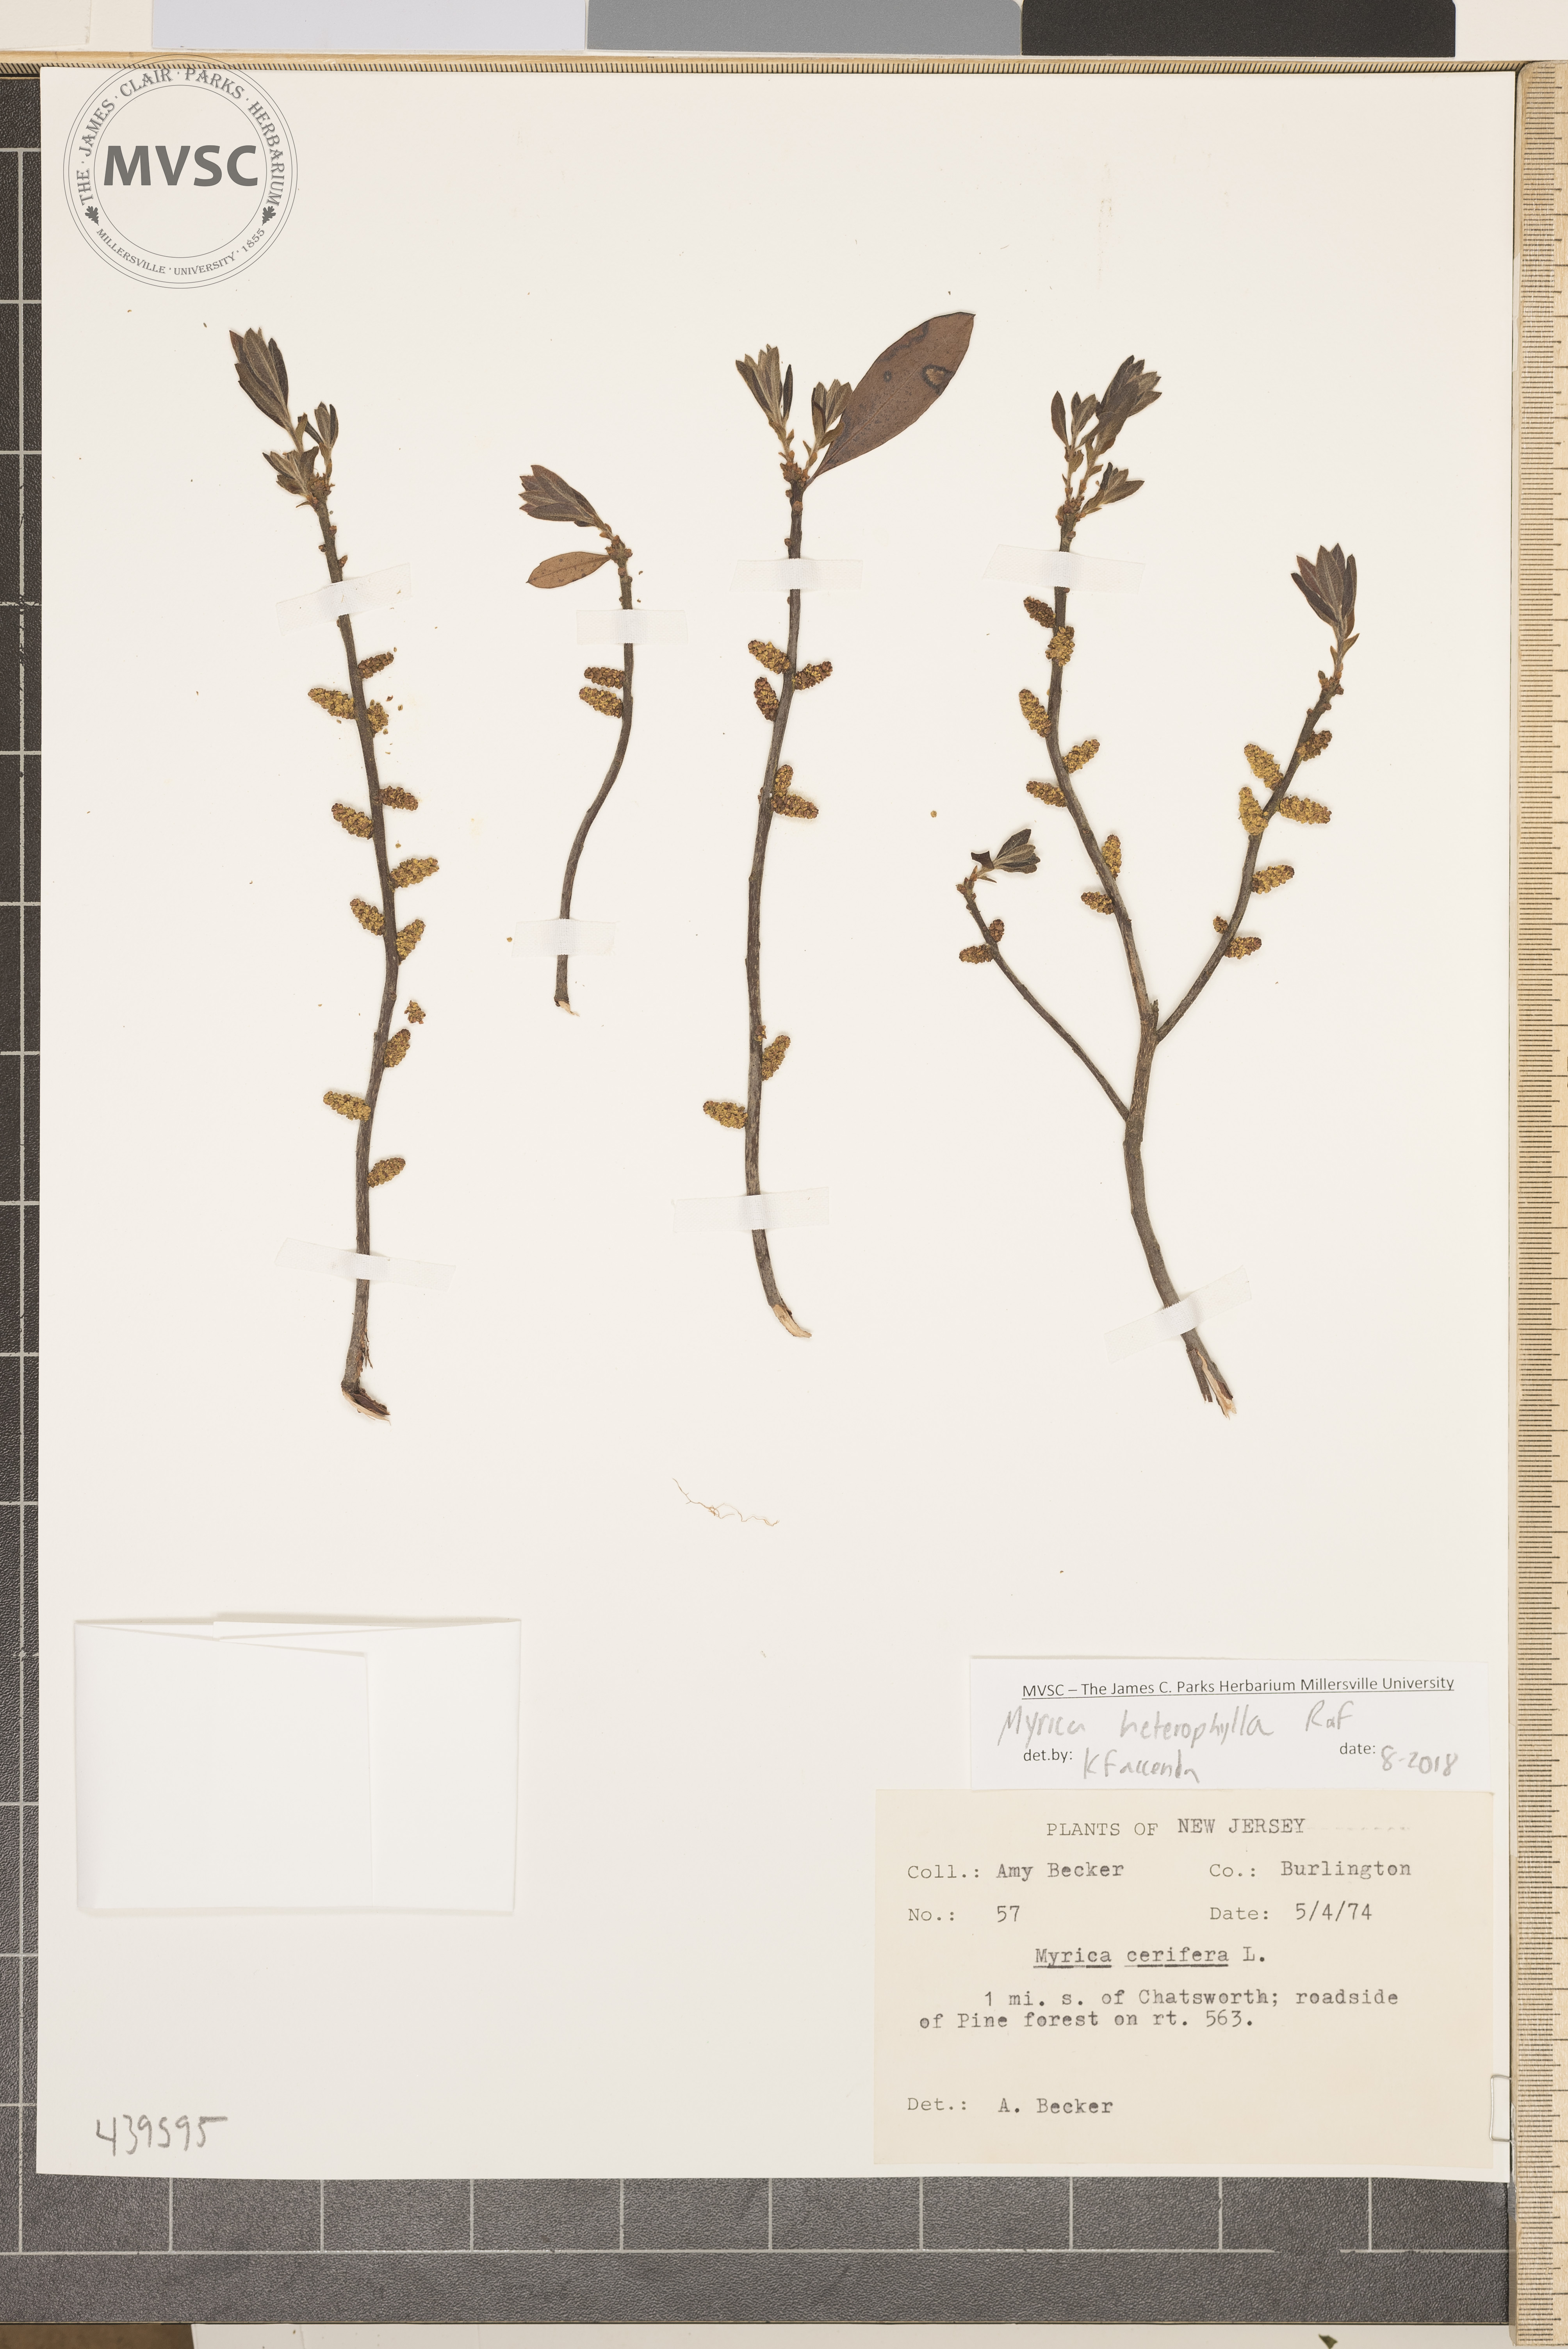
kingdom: Plantae
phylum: Tracheophyta
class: Magnoliopsida
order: Fagales
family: Myricaceae
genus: Morella
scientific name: Morella caroliniensis
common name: Evergreen bayberry
